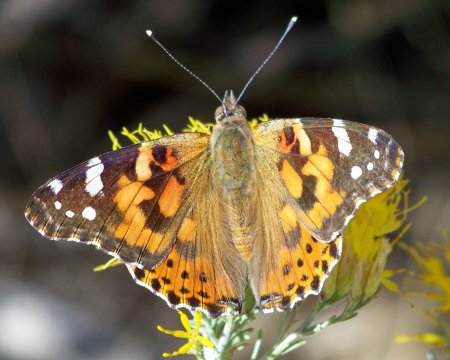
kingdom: Animalia
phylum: Arthropoda
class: Insecta
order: Lepidoptera
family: Nymphalidae
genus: Vanessa
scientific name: Vanessa cardui
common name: Painted Lady
